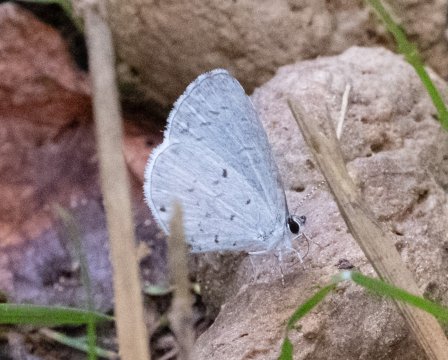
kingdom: Animalia
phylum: Arthropoda
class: Insecta
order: Lepidoptera
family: Lycaenidae
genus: Cyaniris
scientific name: Cyaniris neglecta
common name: Summer Azure
